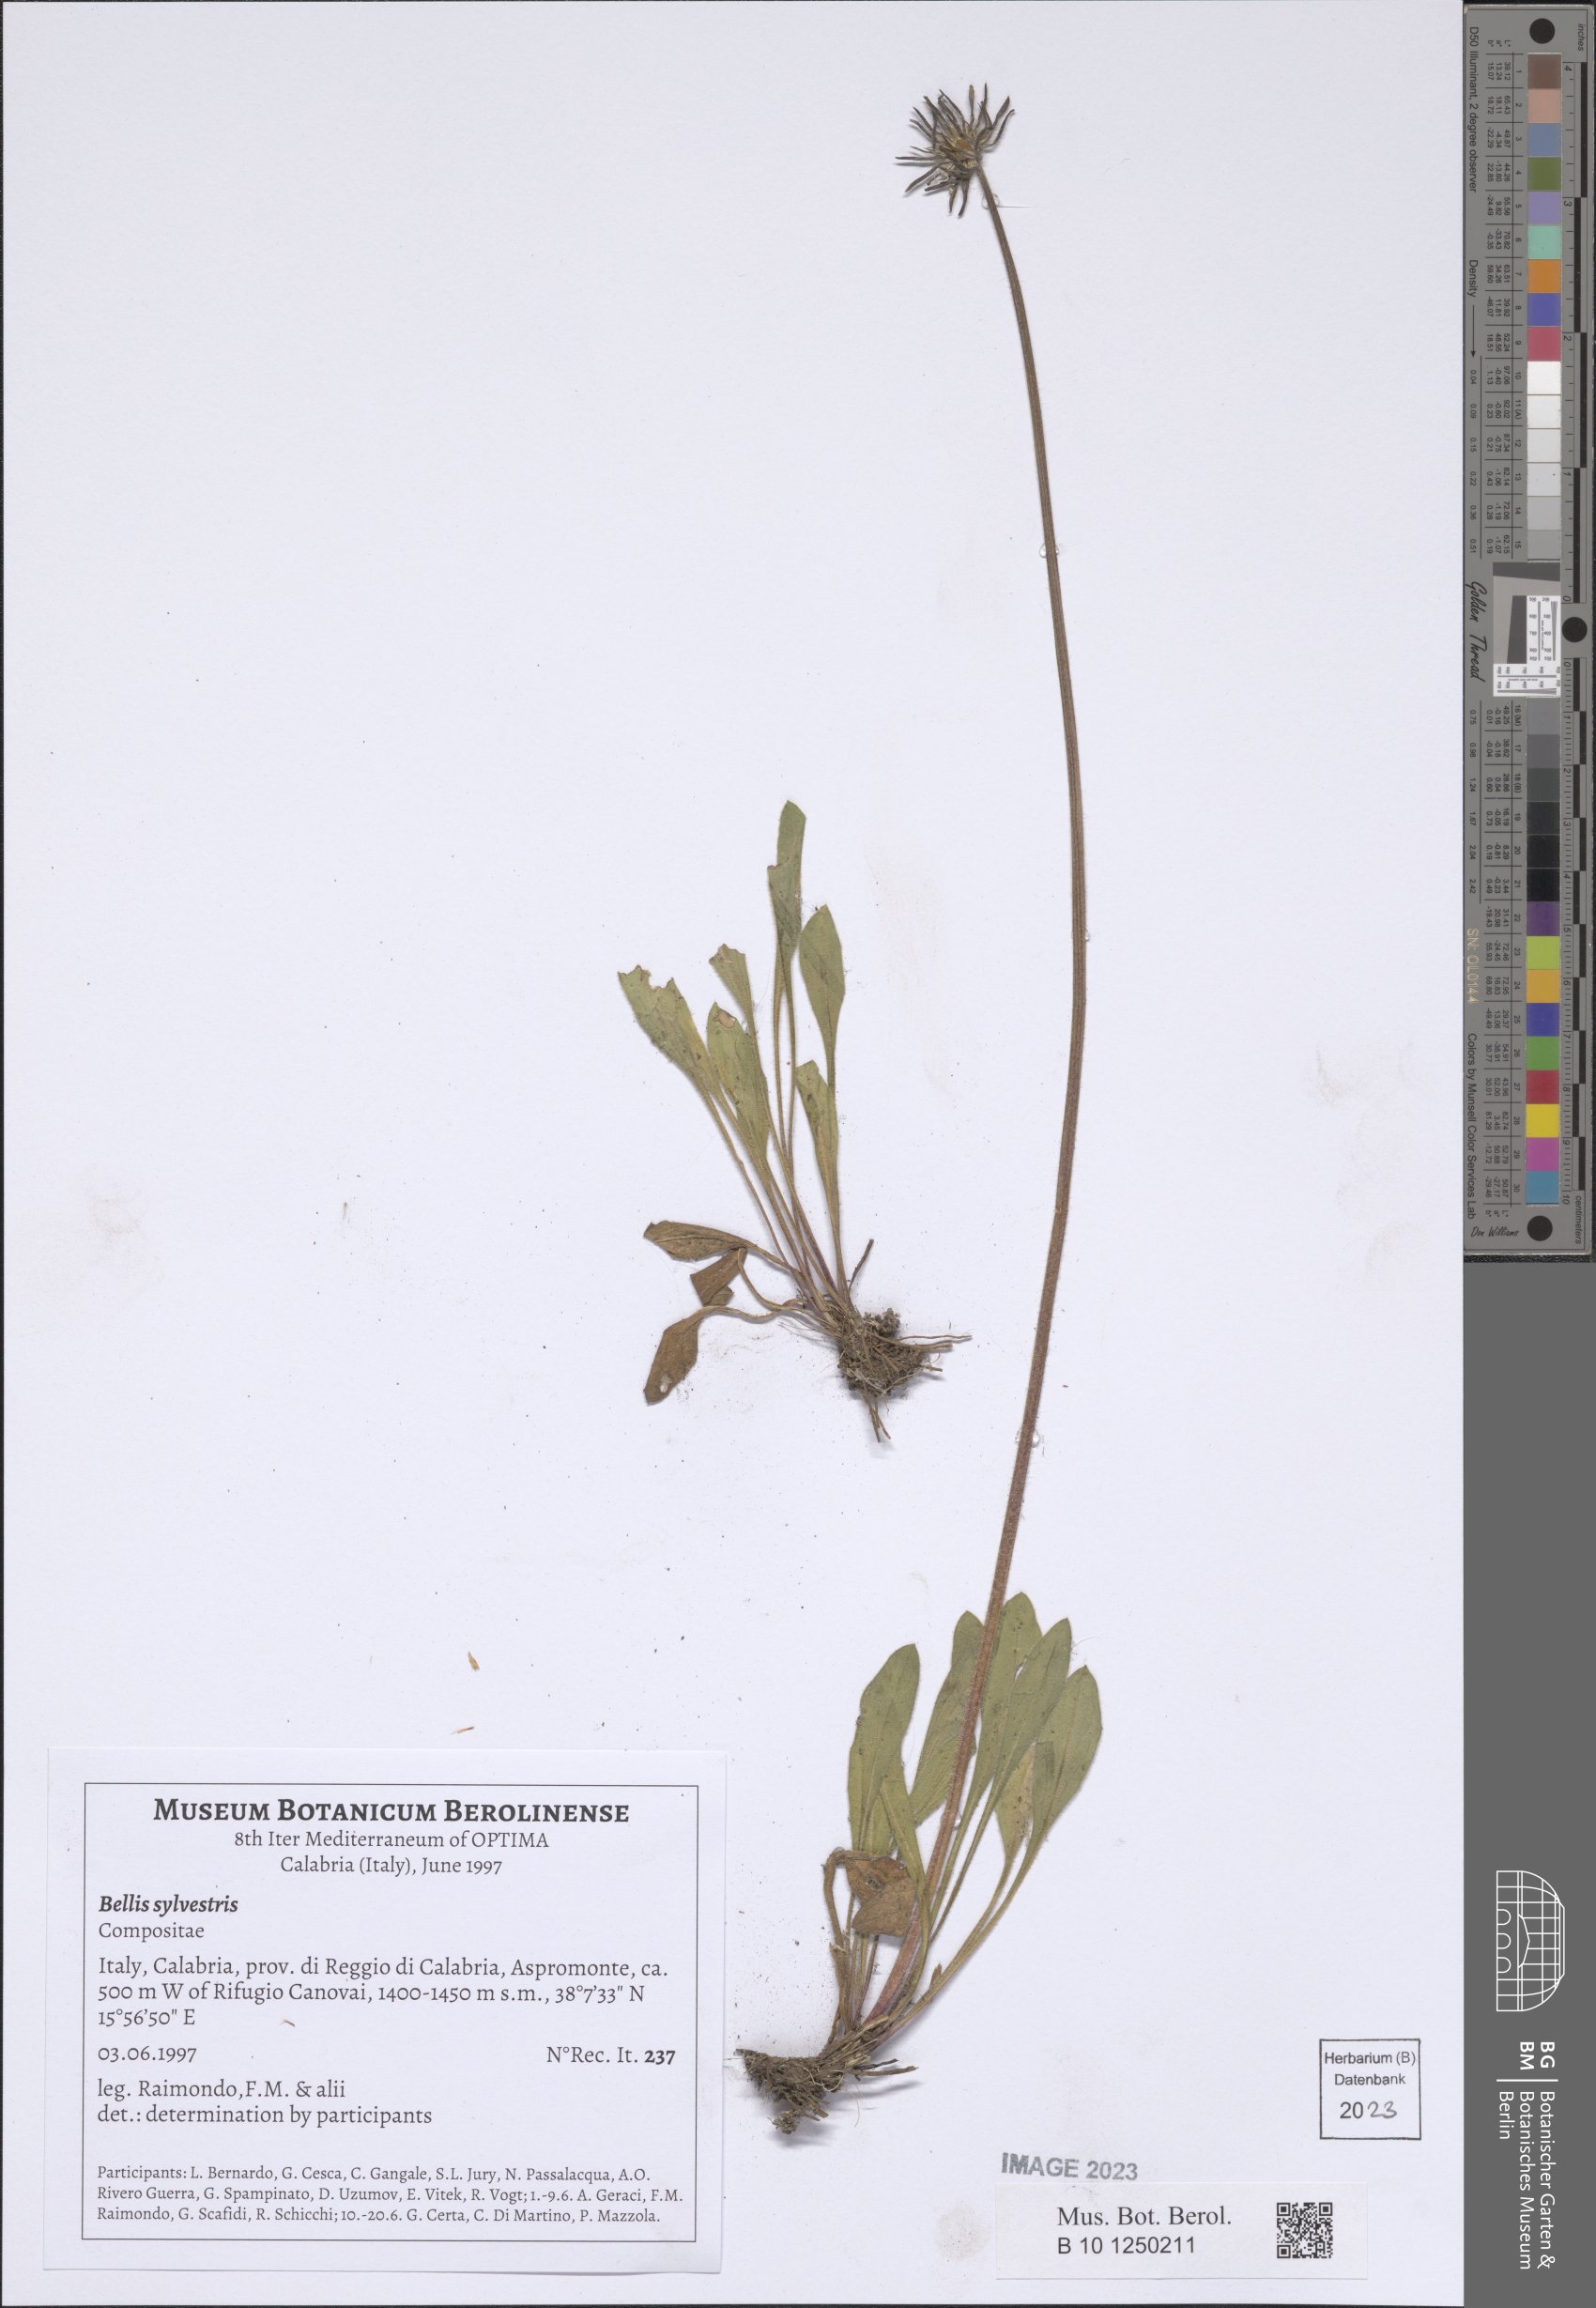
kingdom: Plantae
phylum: Tracheophyta
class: Magnoliopsida
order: Asterales
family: Asteraceae
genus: Bellis
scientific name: Bellis sylvestris
